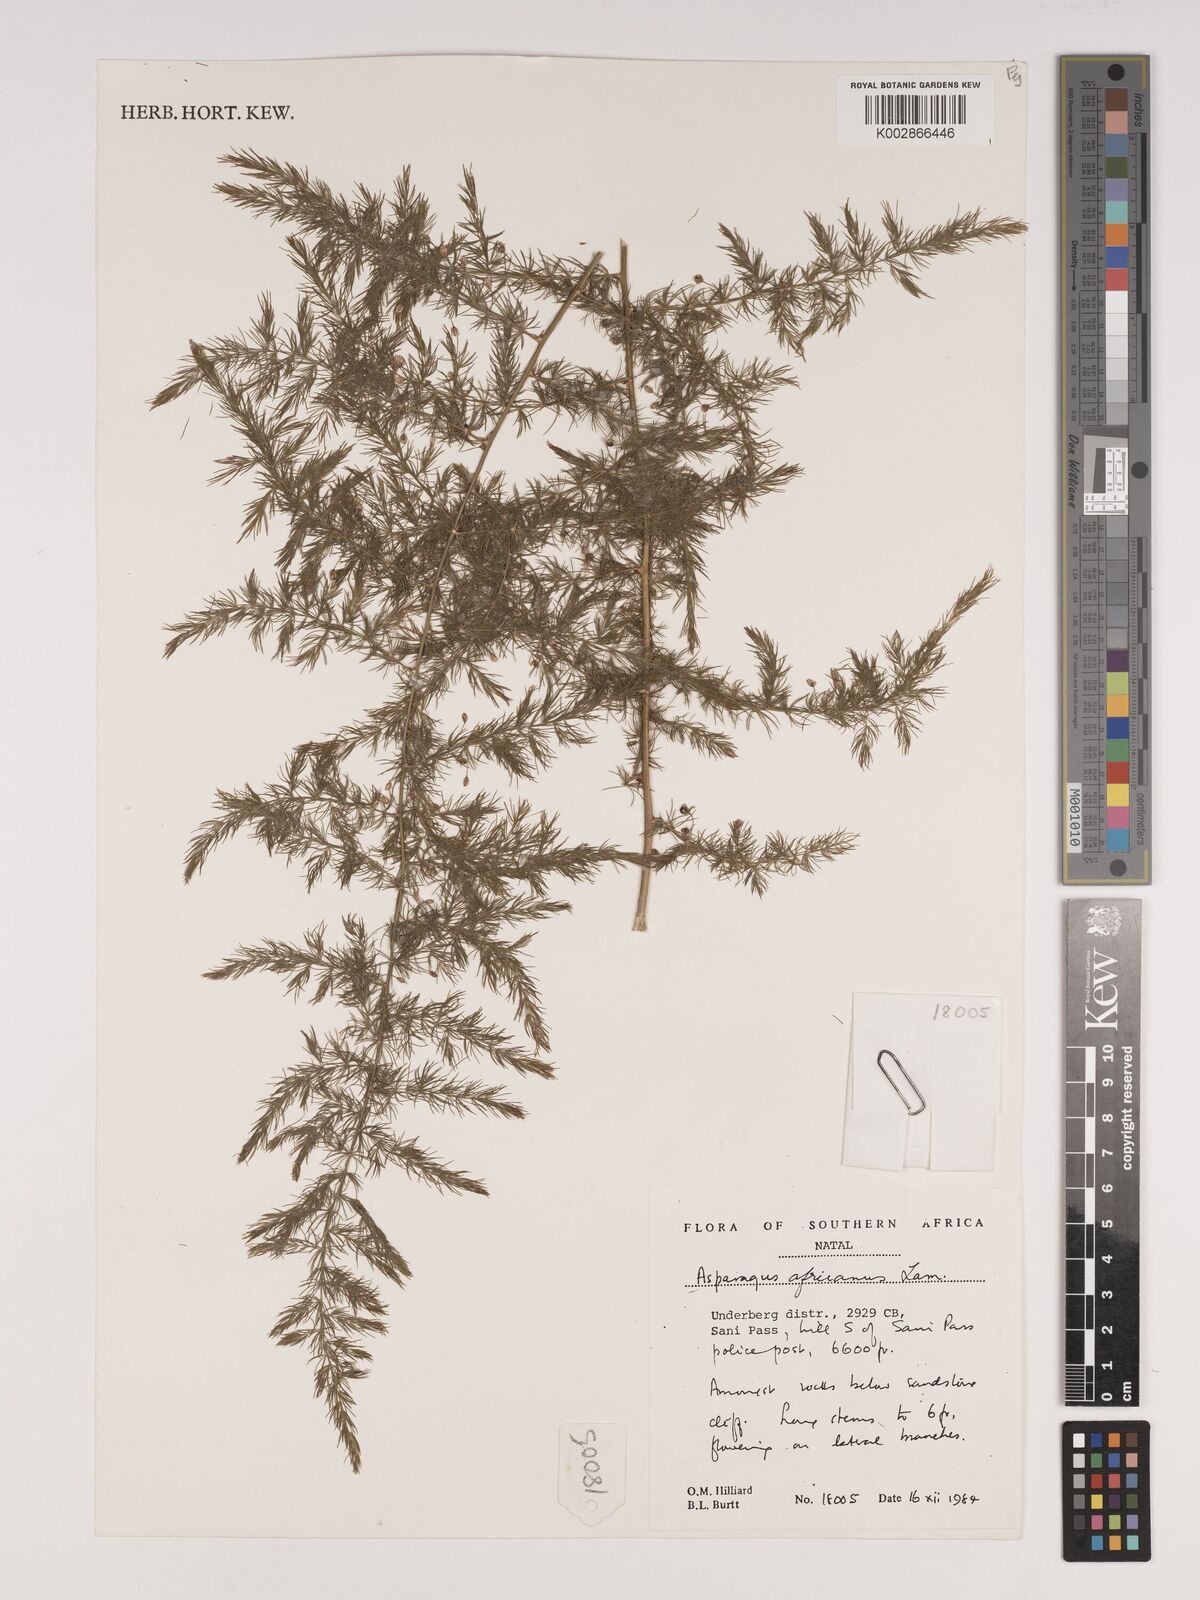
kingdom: Plantae
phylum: Tracheophyta
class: Liliopsida
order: Asparagales
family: Asparagaceae
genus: Asparagus
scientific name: Asparagus africanus
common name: Asparagus-fern
